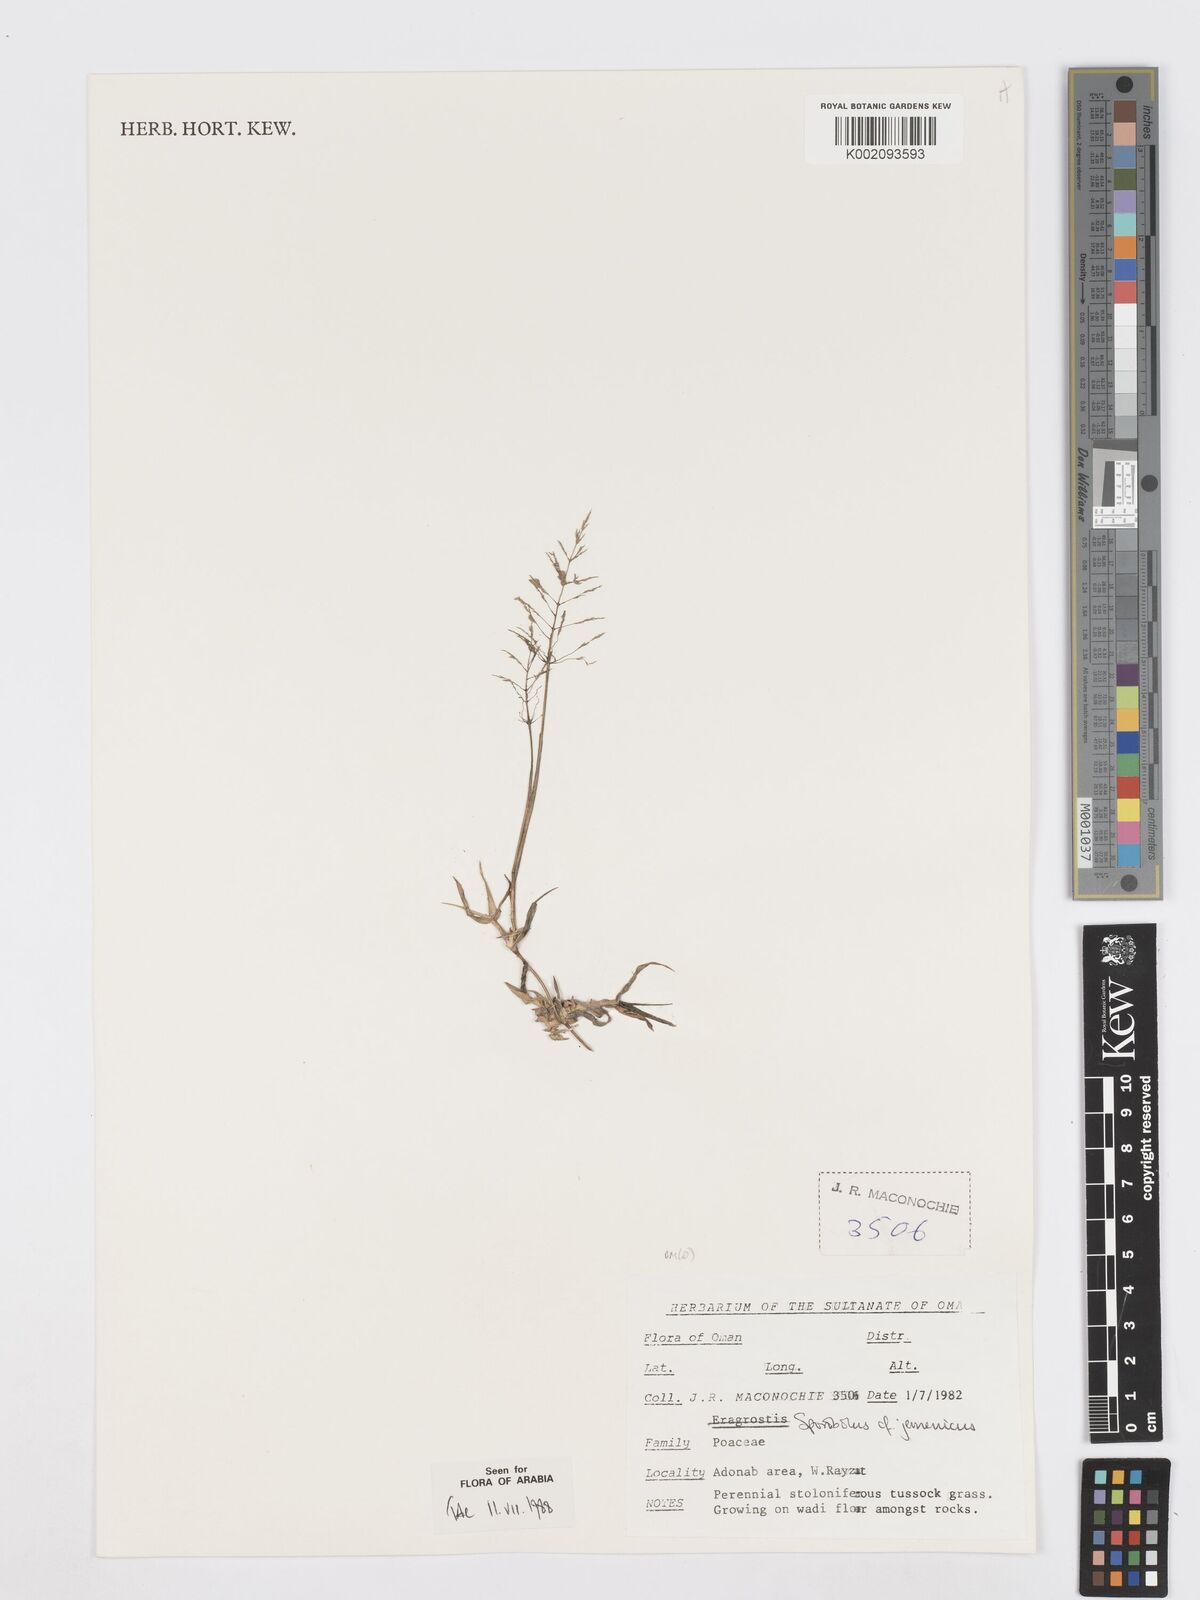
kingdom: Plantae
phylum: Tracheophyta
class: Liliopsida
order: Poales
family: Poaceae
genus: Sporobolus
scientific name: Sporobolus gloeoclados
